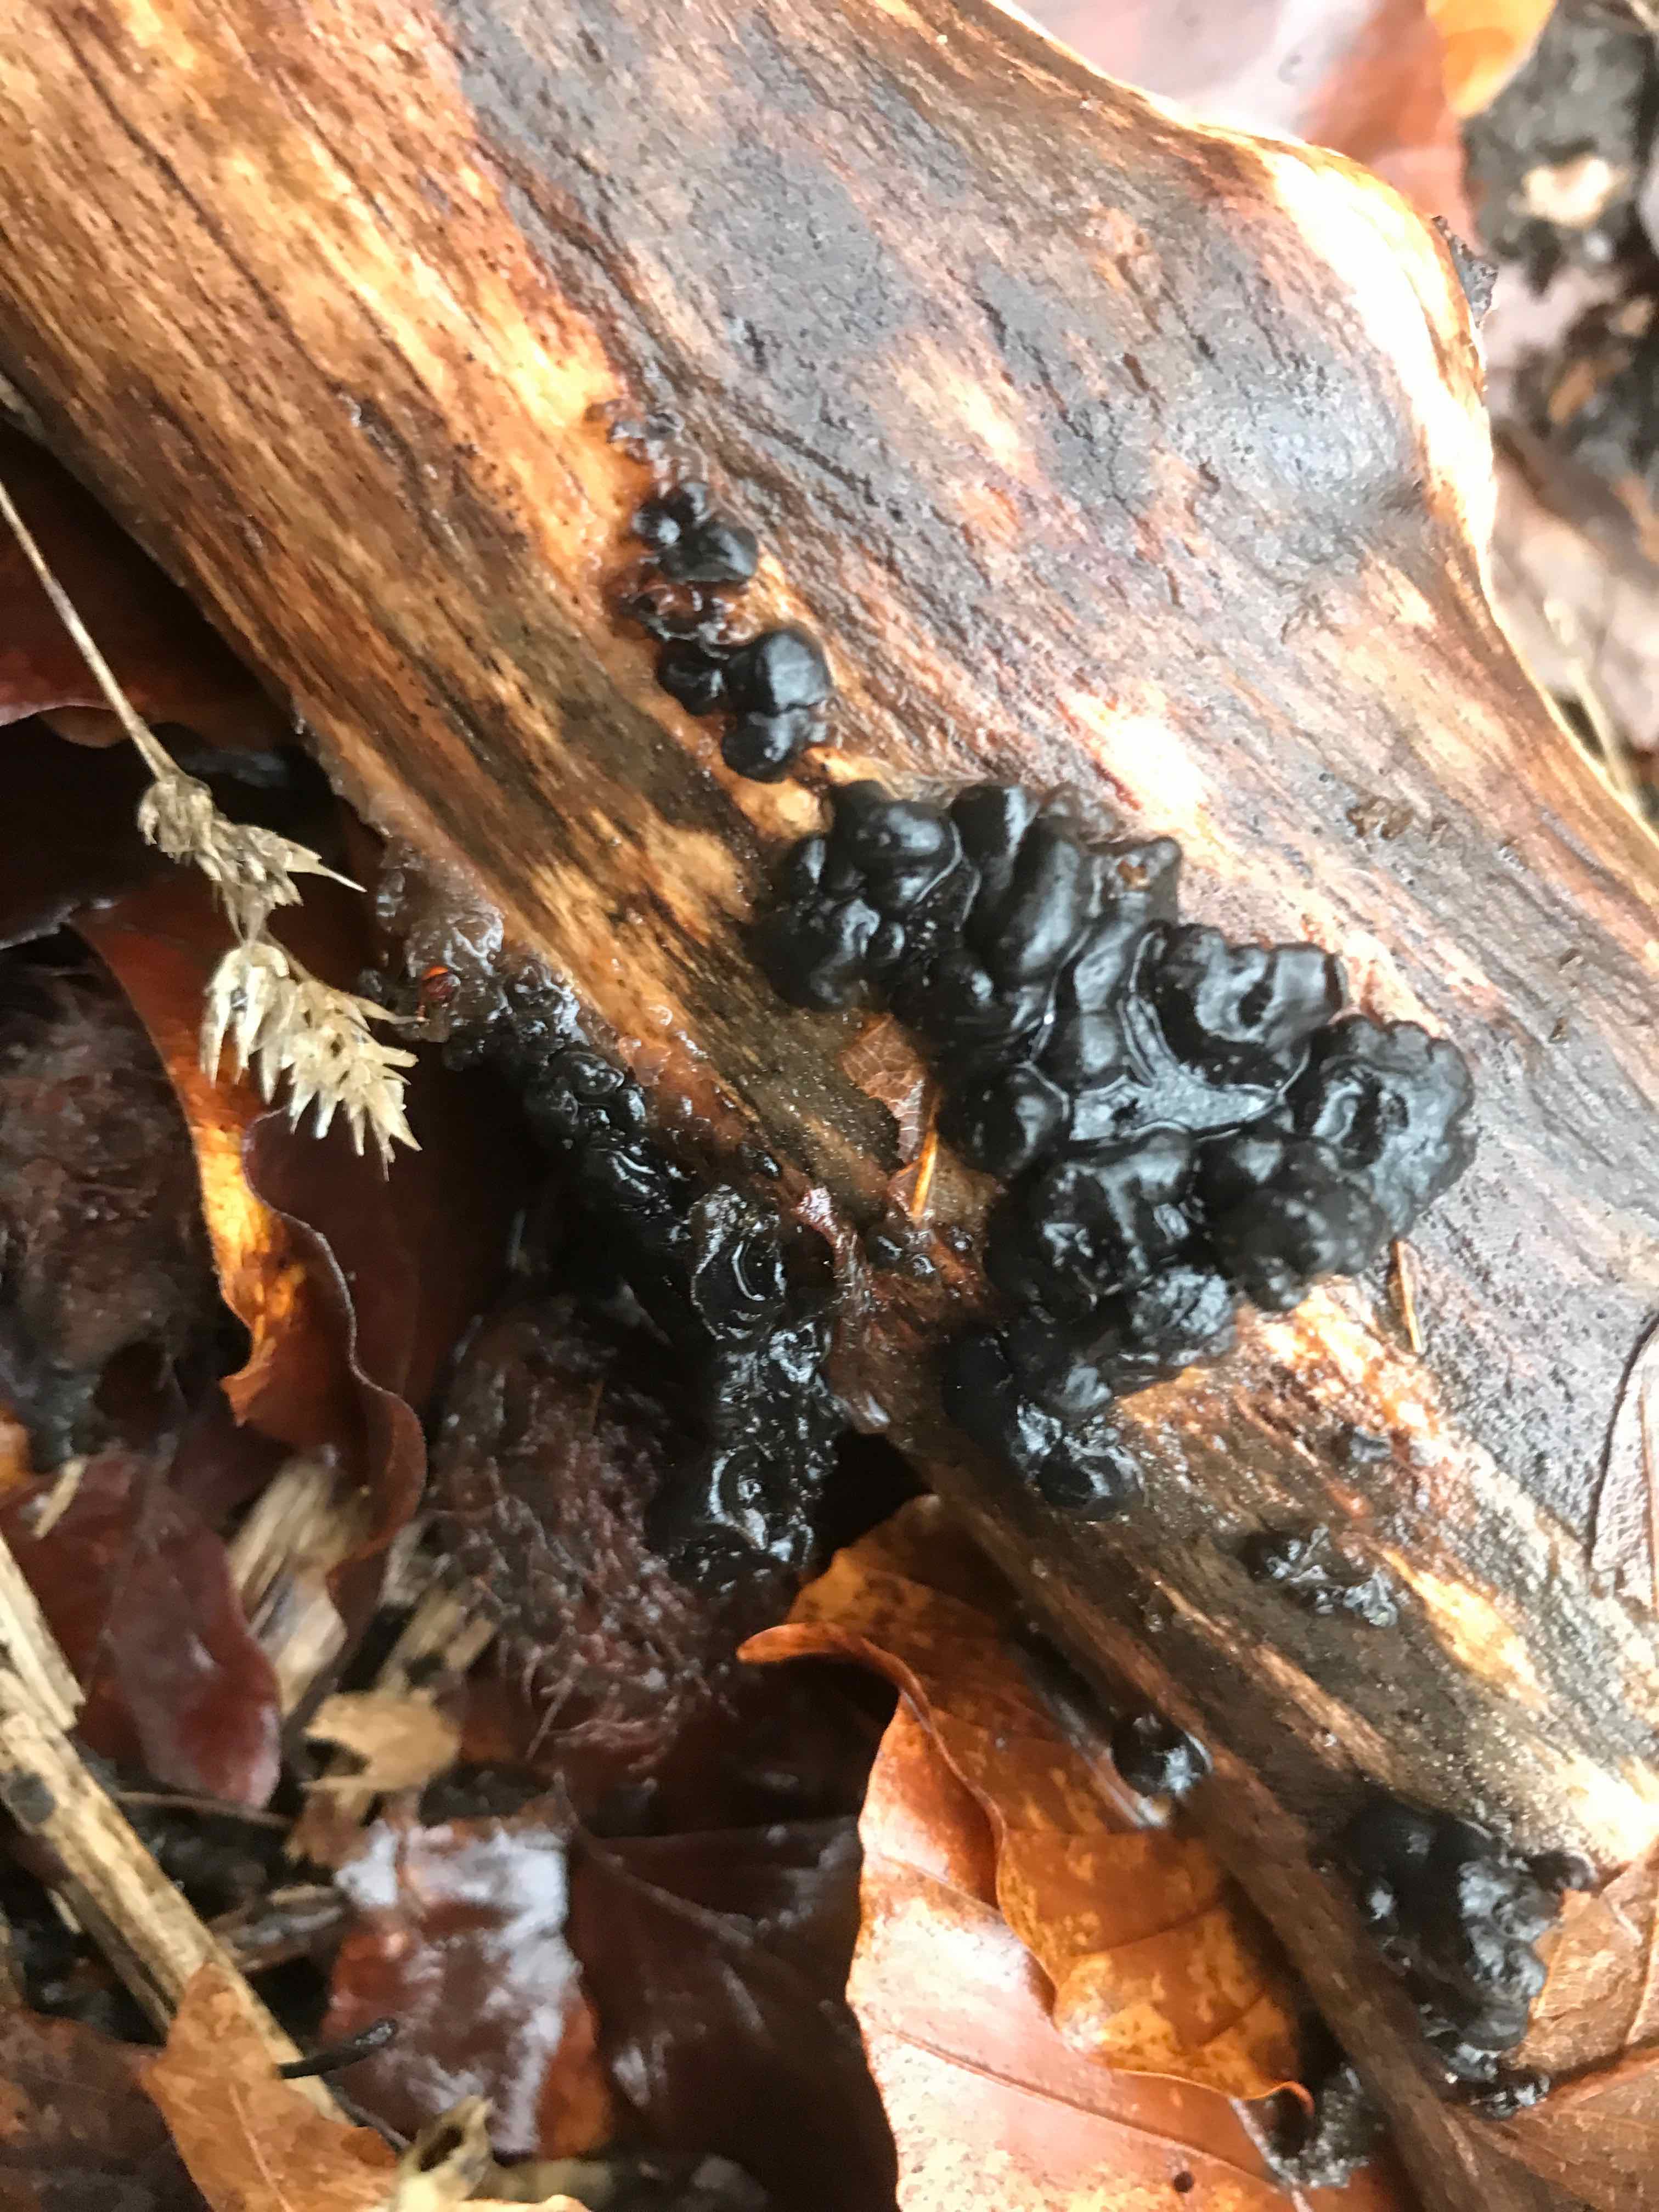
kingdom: Fungi
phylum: Basidiomycota
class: Agaricomycetes
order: Auriculariales
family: Auriculariaceae
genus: Exidia
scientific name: Exidia nigricans
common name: almindelig bævretop
